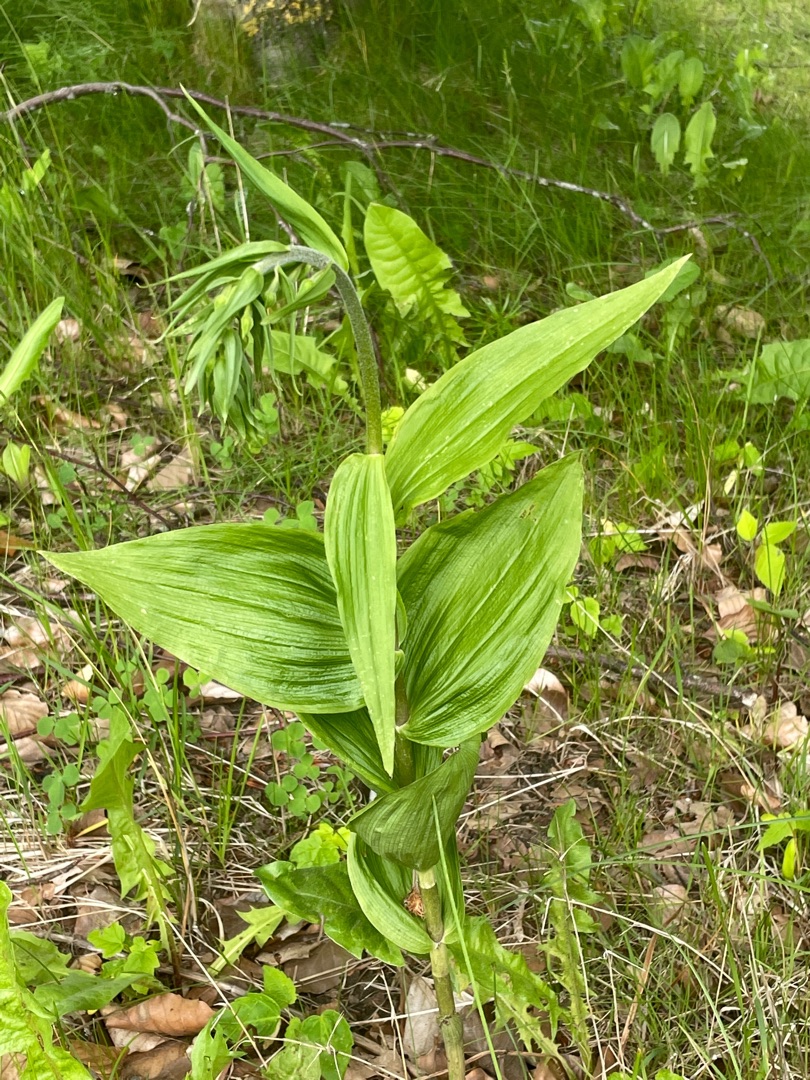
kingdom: Plantae
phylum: Tracheophyta
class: Liliopsida
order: Asparagales
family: Orchidaceae
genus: Epipactis
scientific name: Epipactis helleborine
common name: Skov-hullæbe
